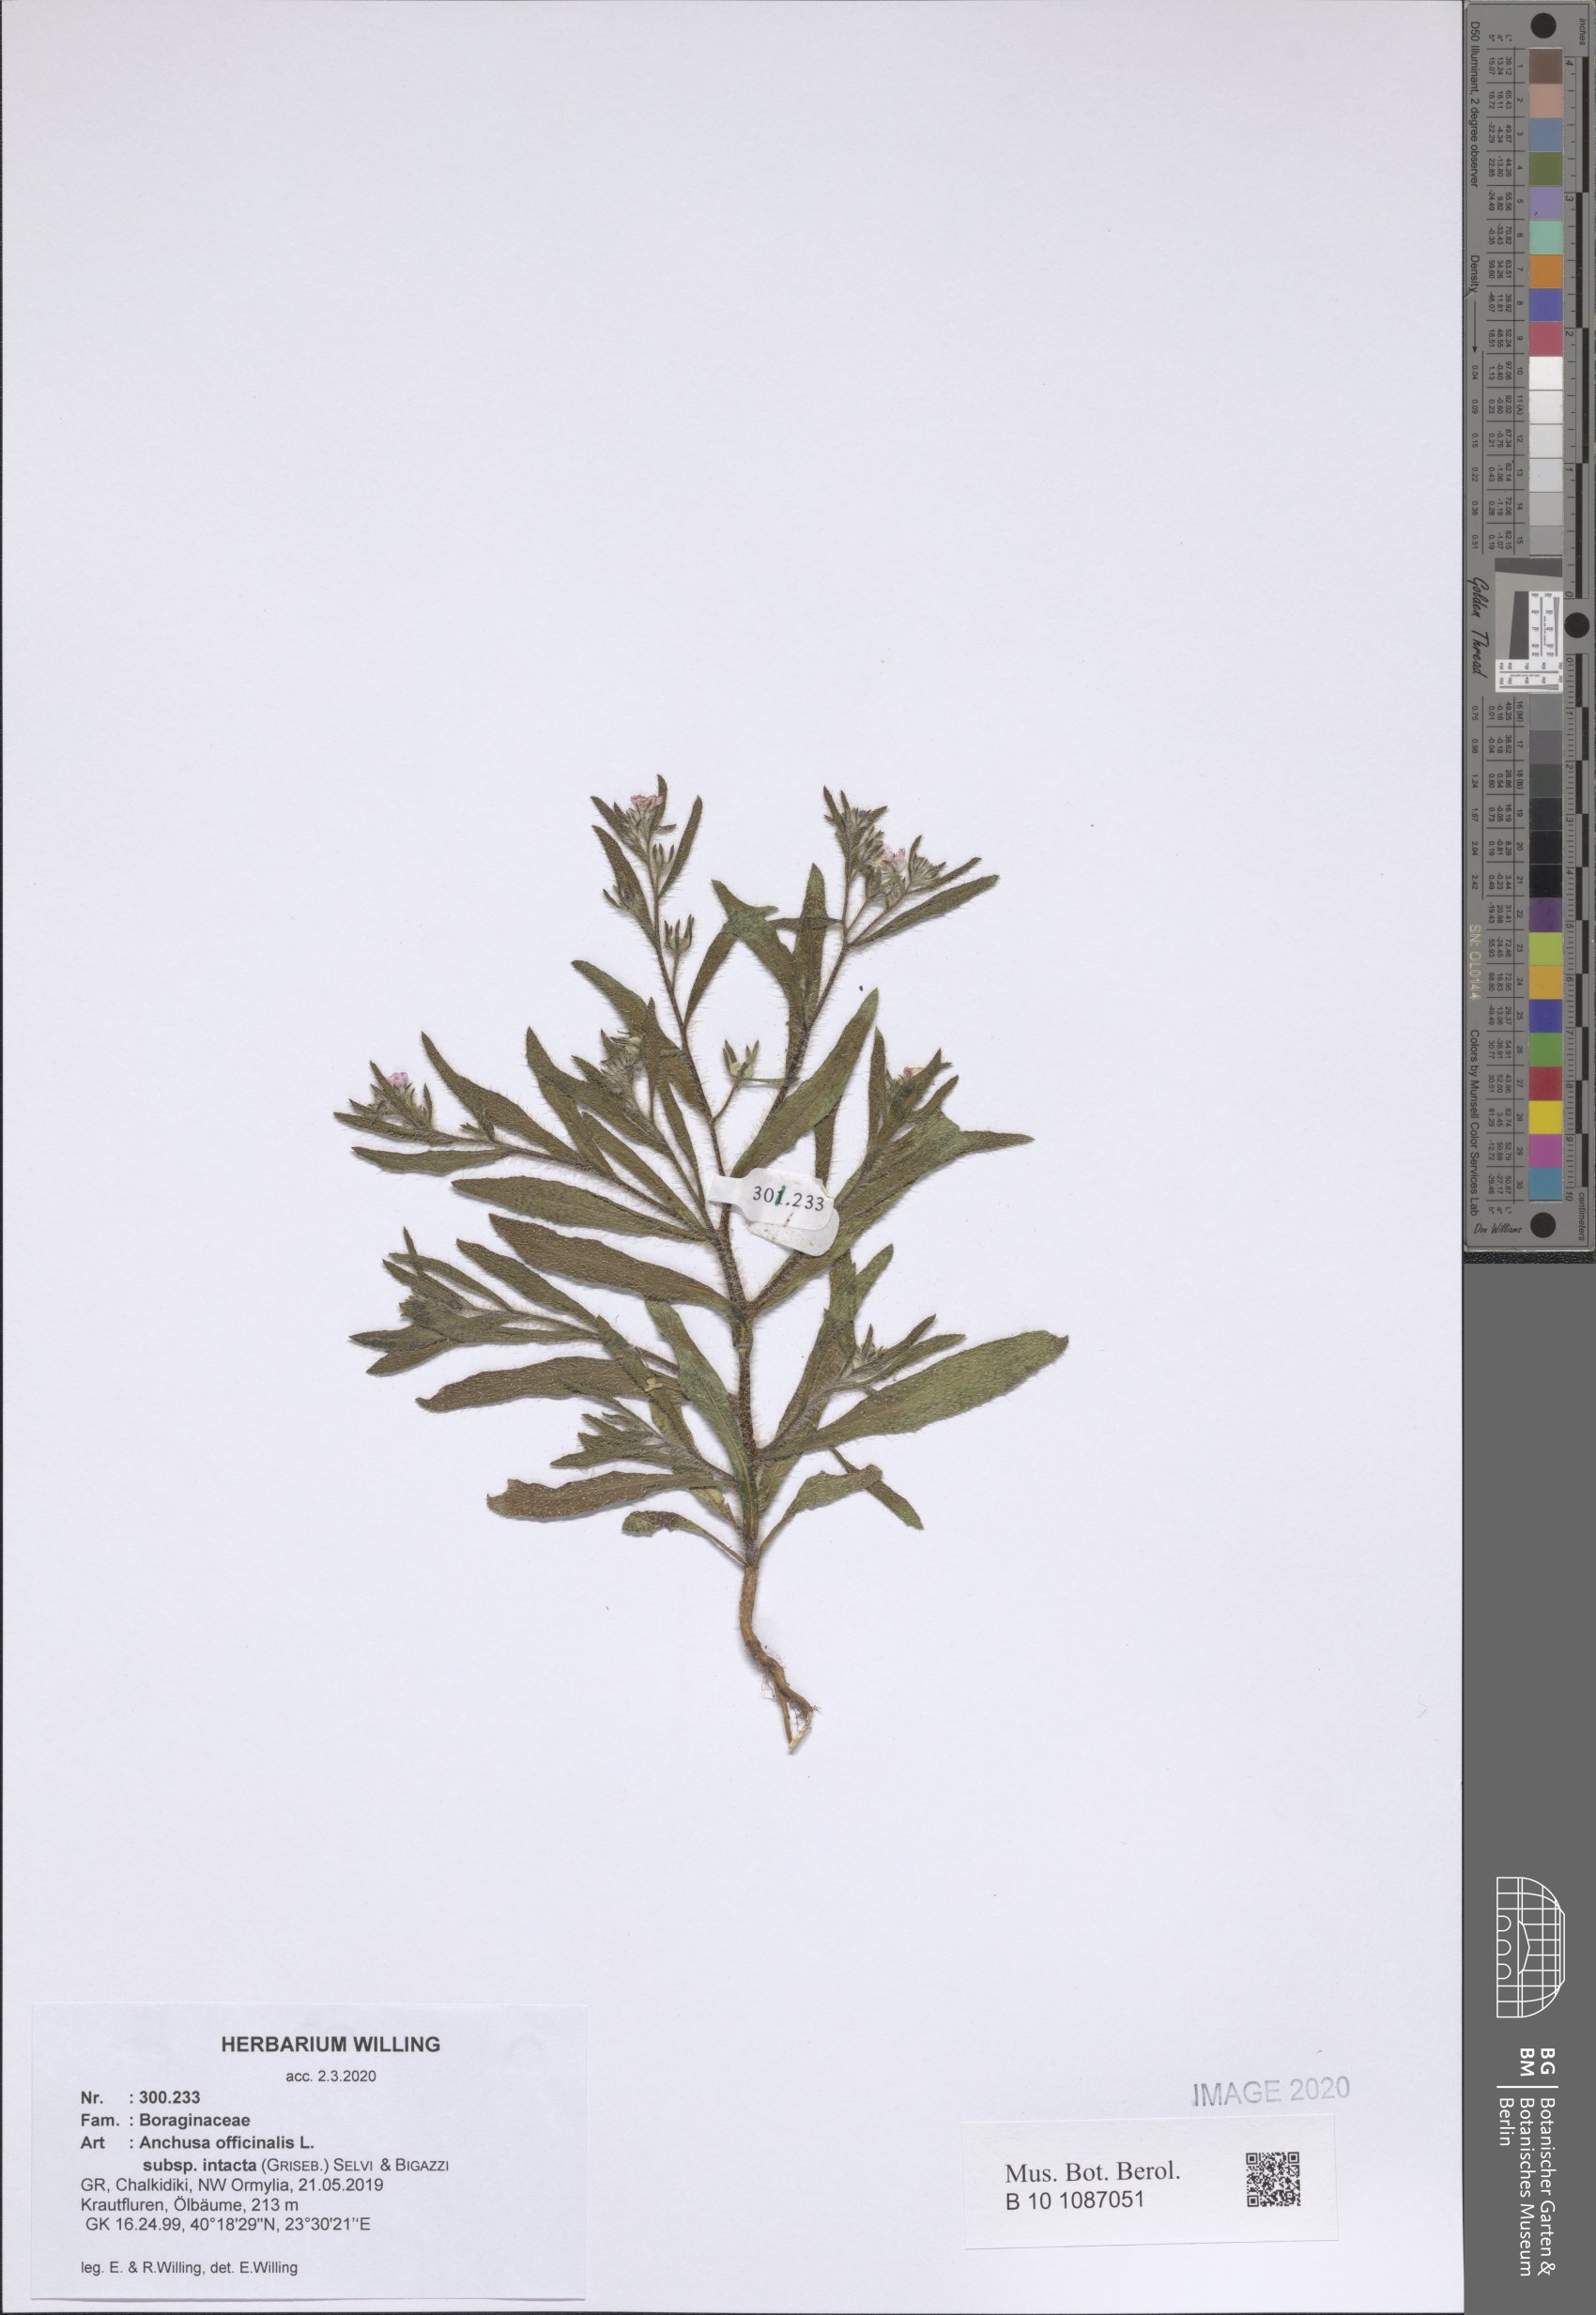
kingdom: Plantae
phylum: Tracheophyta
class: Magnoliopsida
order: Boraginales
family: Boraginaceae
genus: Anchusa
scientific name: Anchusa officinalis
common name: Alkanet
